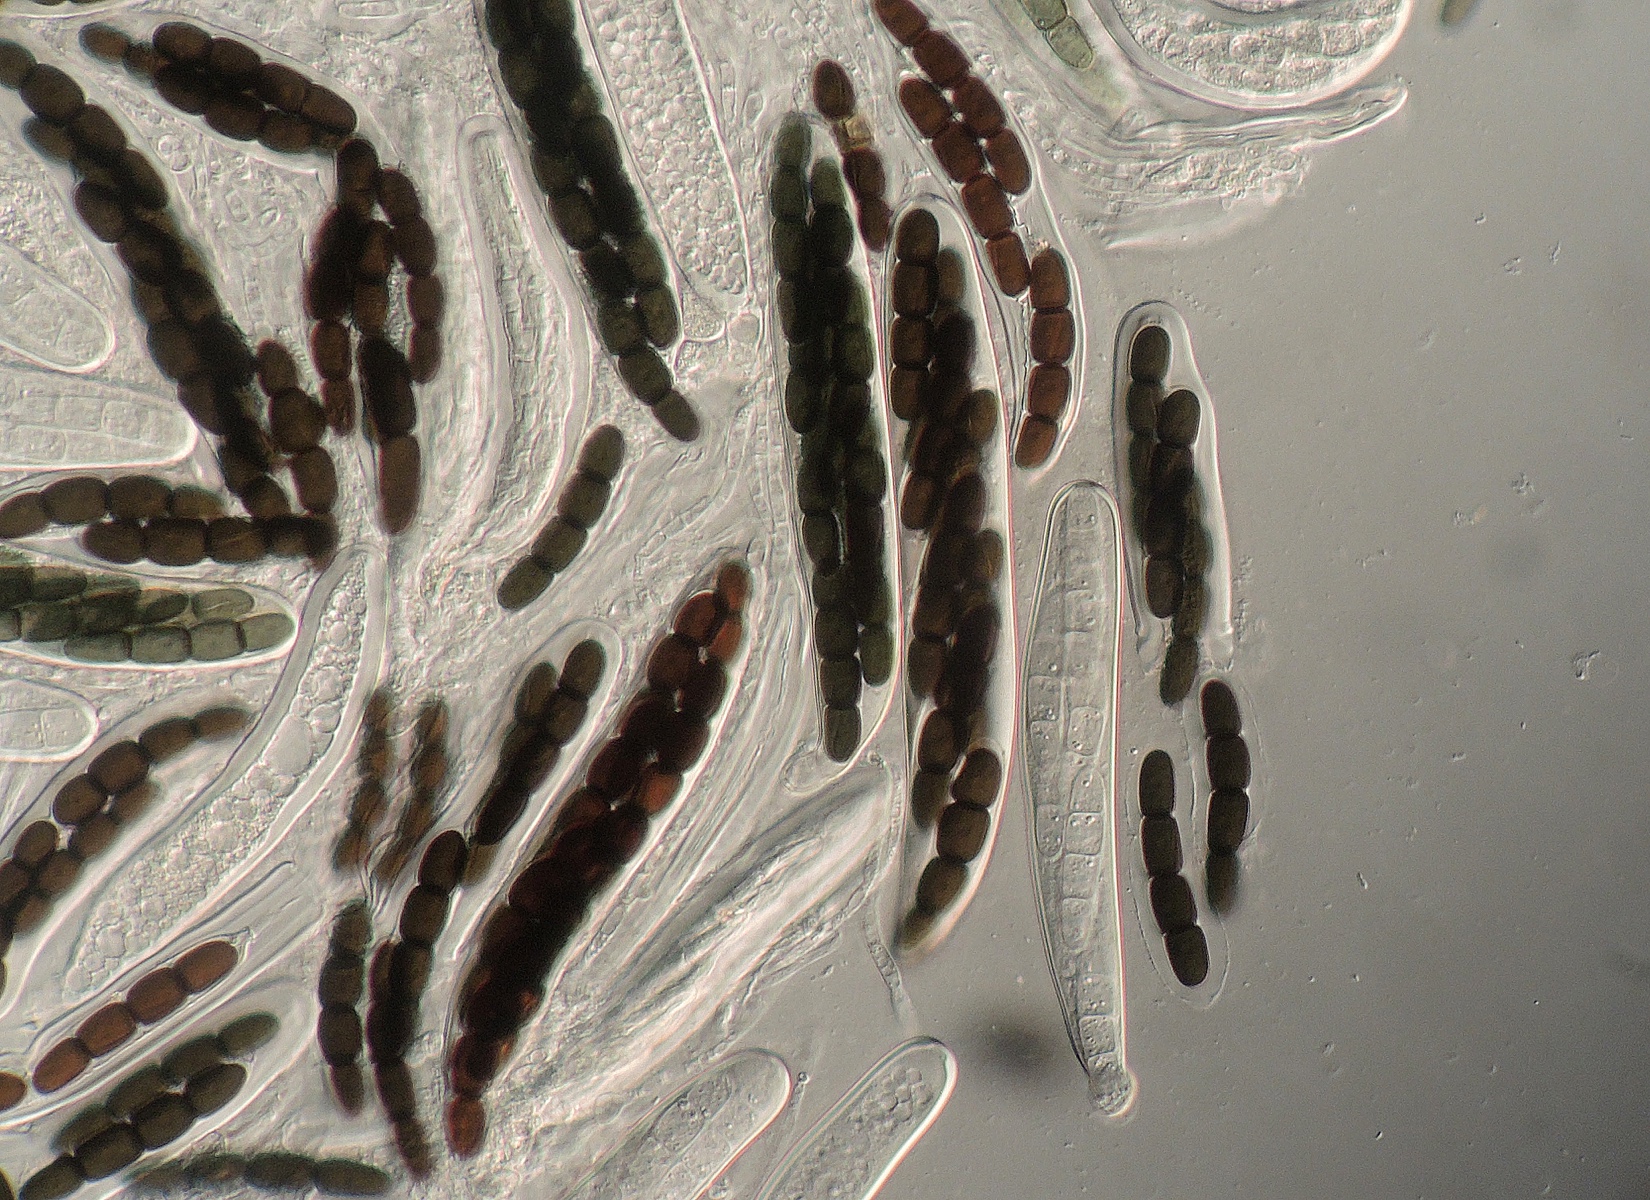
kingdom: Fungi
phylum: Ascomycota
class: Dothideomycetes
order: Pleosporales
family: Sporormiaceae
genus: Sporormiella
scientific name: Sporormiella intermedia
